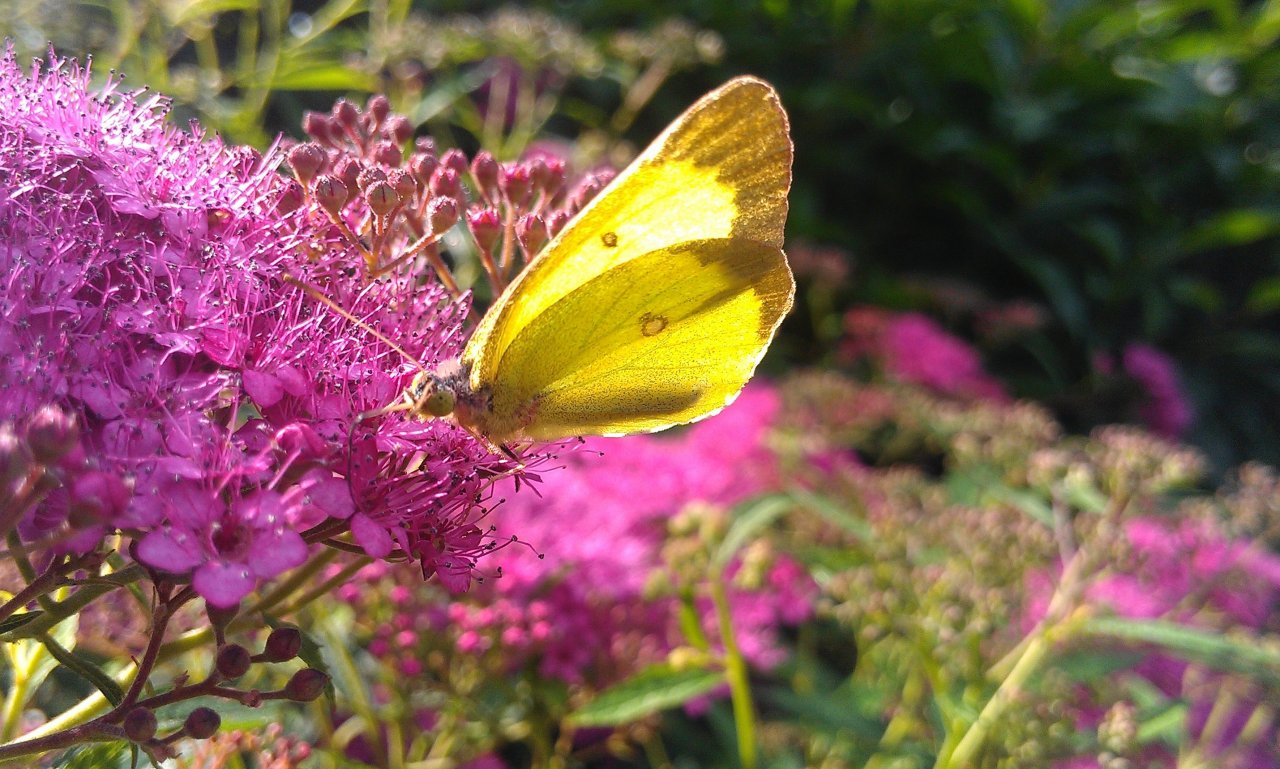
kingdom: Animalia
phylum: Arthropoda
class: Insecta
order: Lepidoptera
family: Pieridae
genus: Colias
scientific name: Colias philodice
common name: Clouded Sulphur
